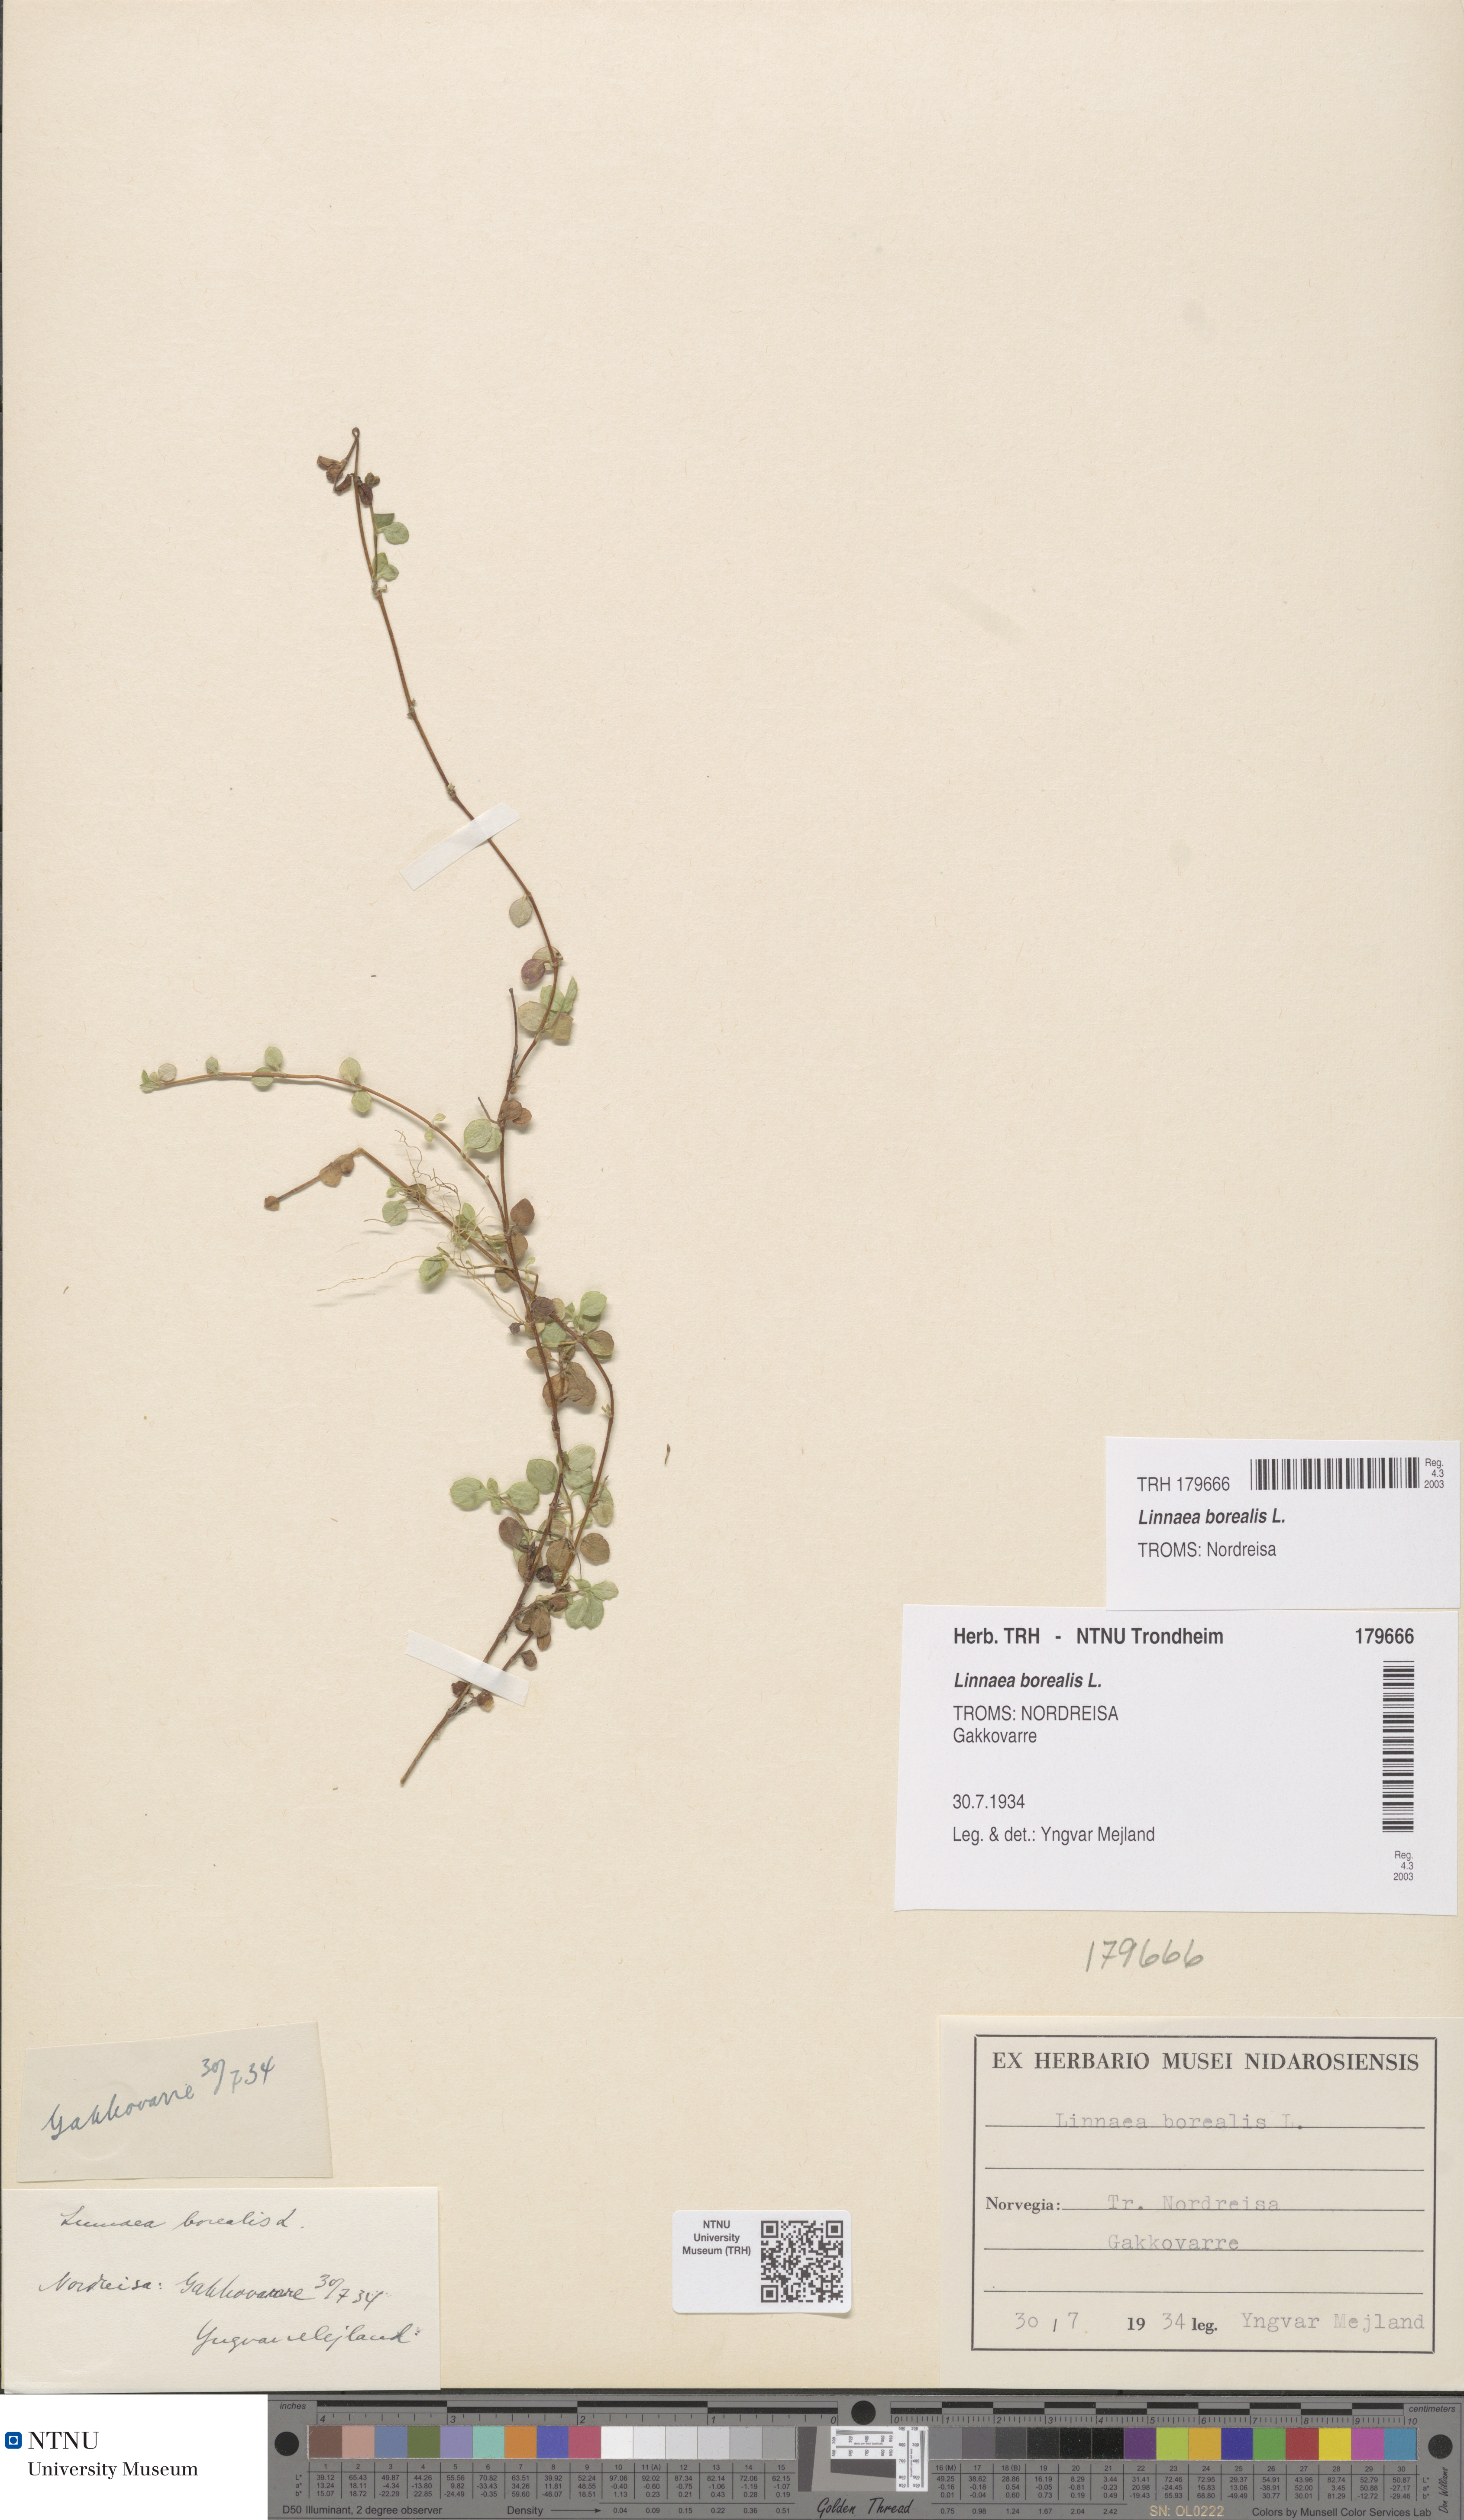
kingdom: Plantae
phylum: Tracheophyta
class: Magnoliopsida
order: Dipsacales
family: Caprifoliaceae
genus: Linnaea
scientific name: Linnaea borealis
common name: Twinflower
